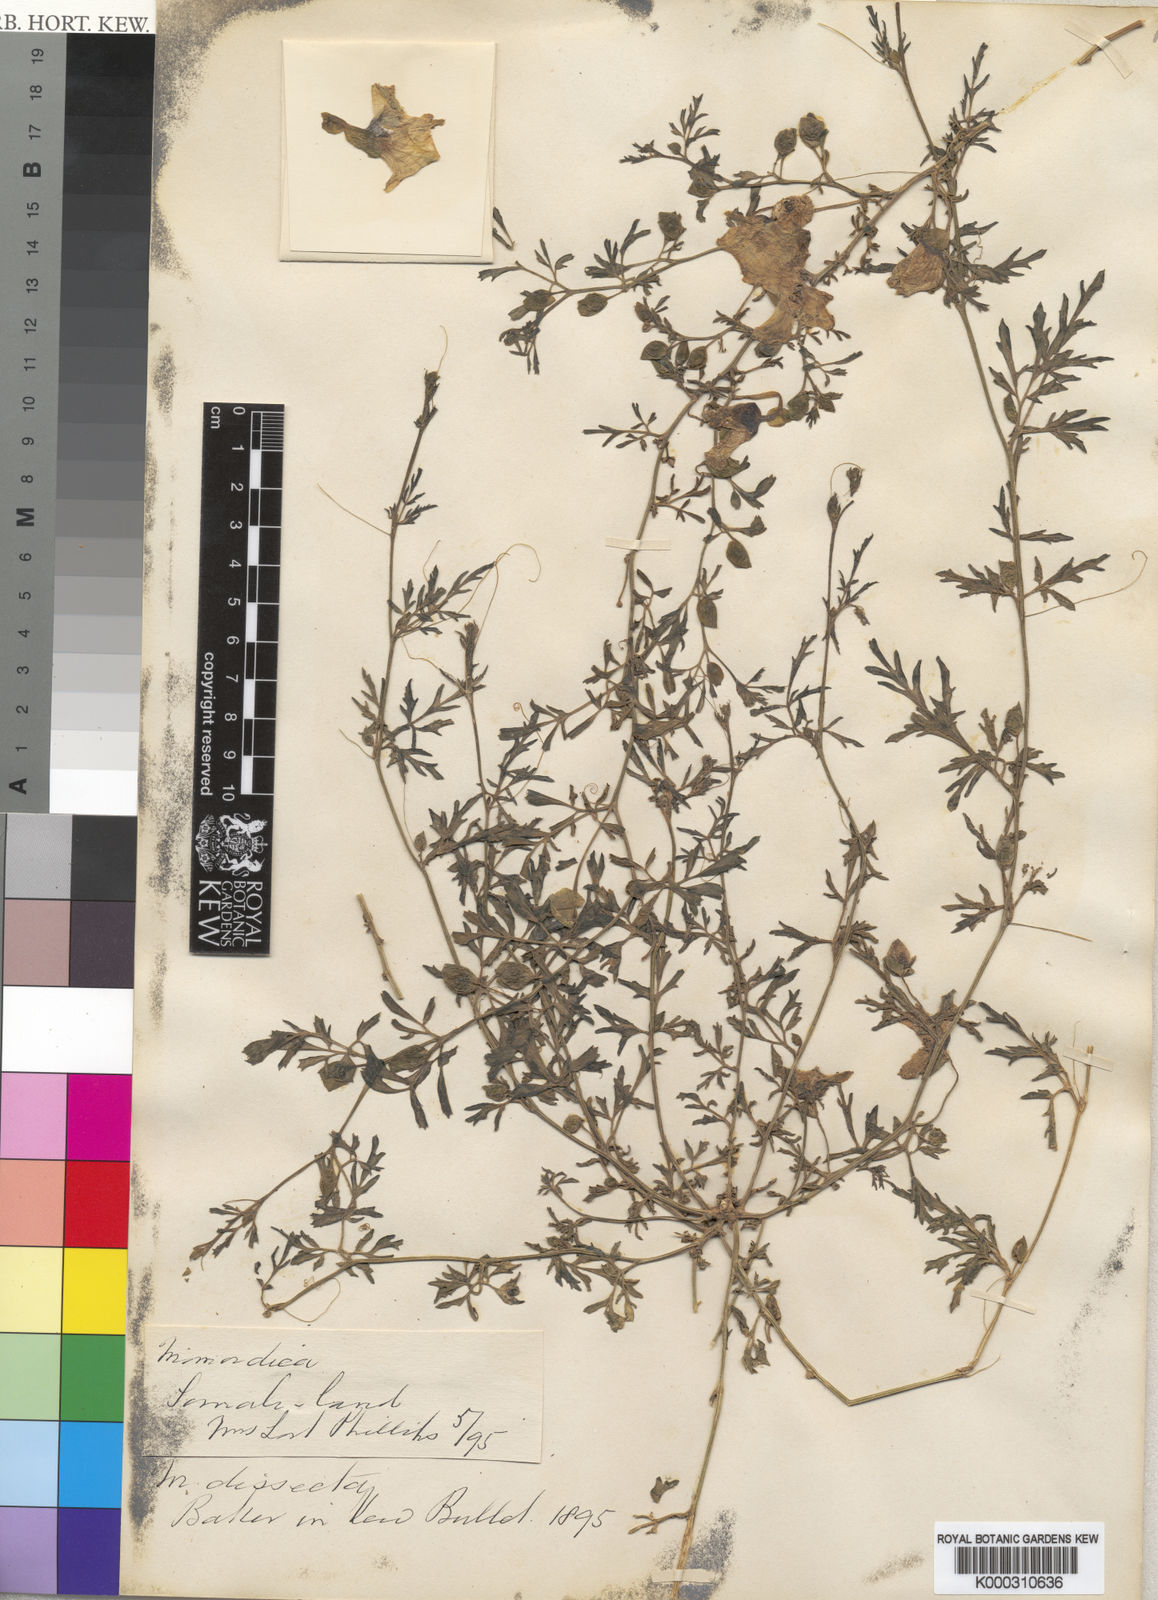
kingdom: Plantae
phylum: Tracheophyta
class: Magnoliopsida
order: Cucurbitales
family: Cucurbitaceae
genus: Momordica
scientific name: Momordica dissecta
